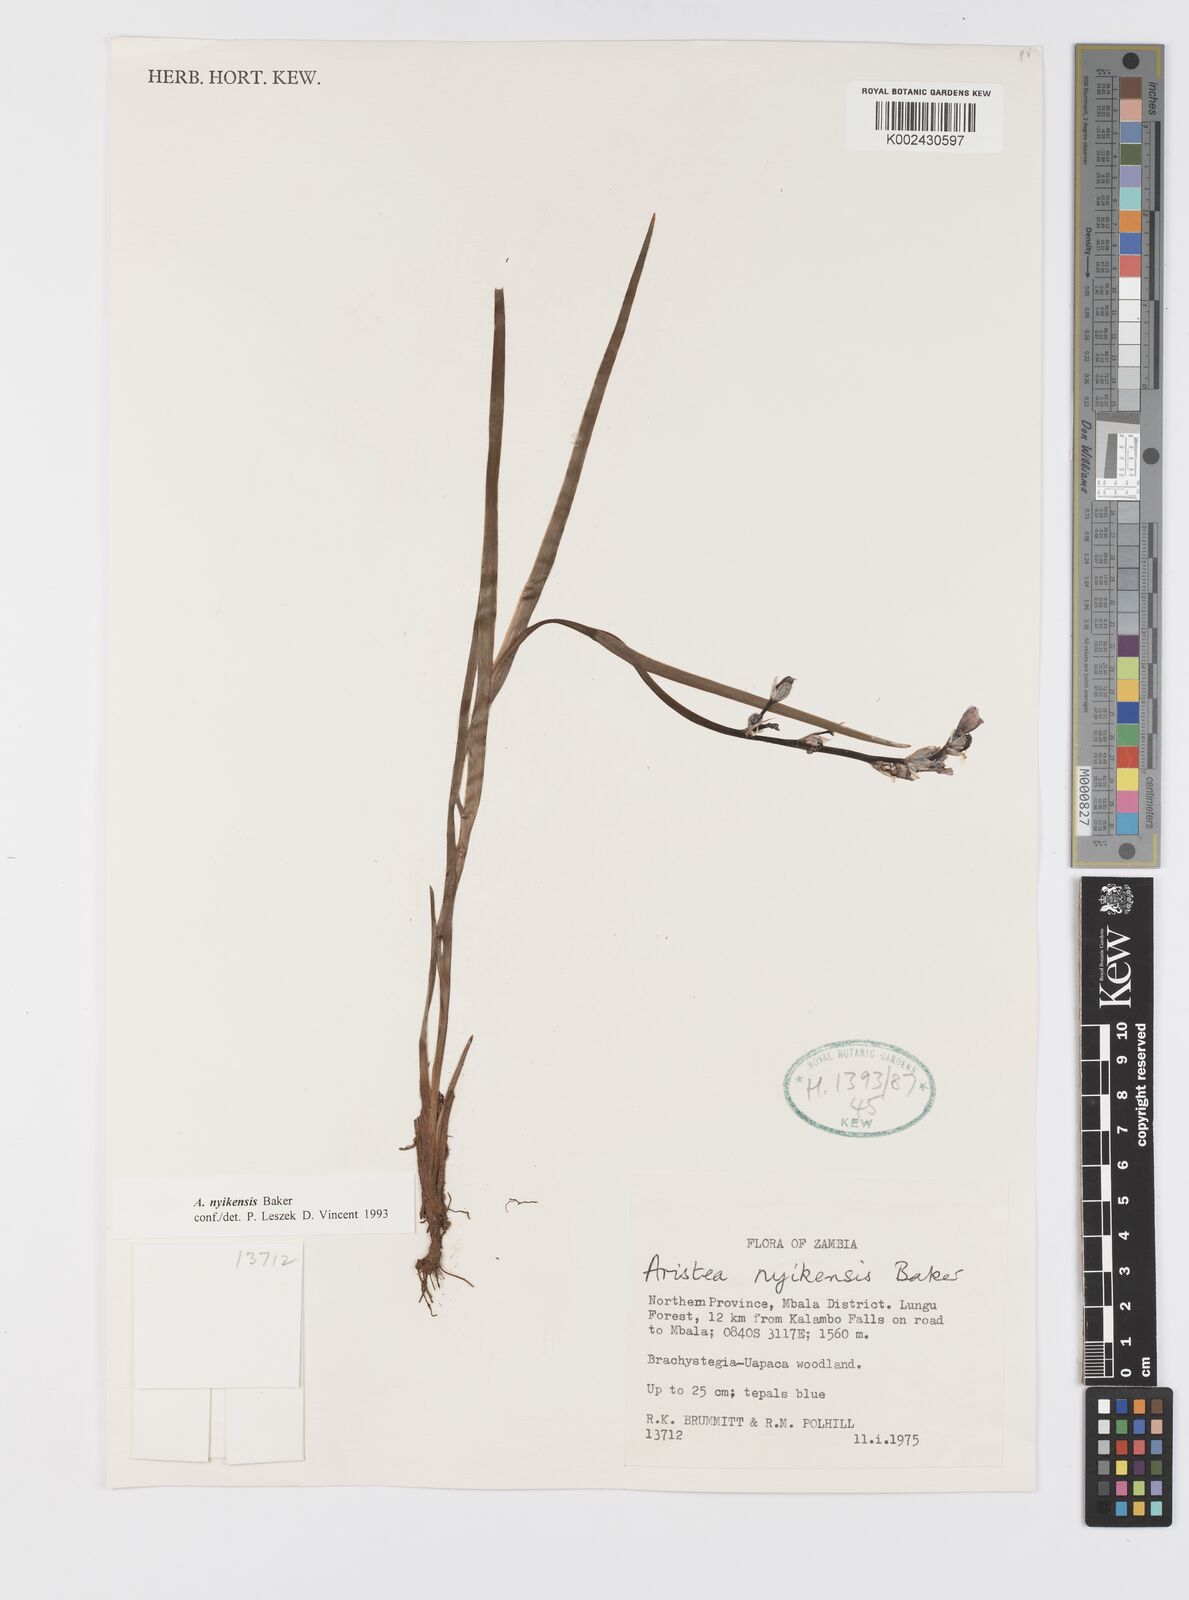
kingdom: Plantae
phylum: Tracheophyta
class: Liliopsida
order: Asparagales
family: Iridaceae
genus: Aristea
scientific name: Aristea nyikensis
